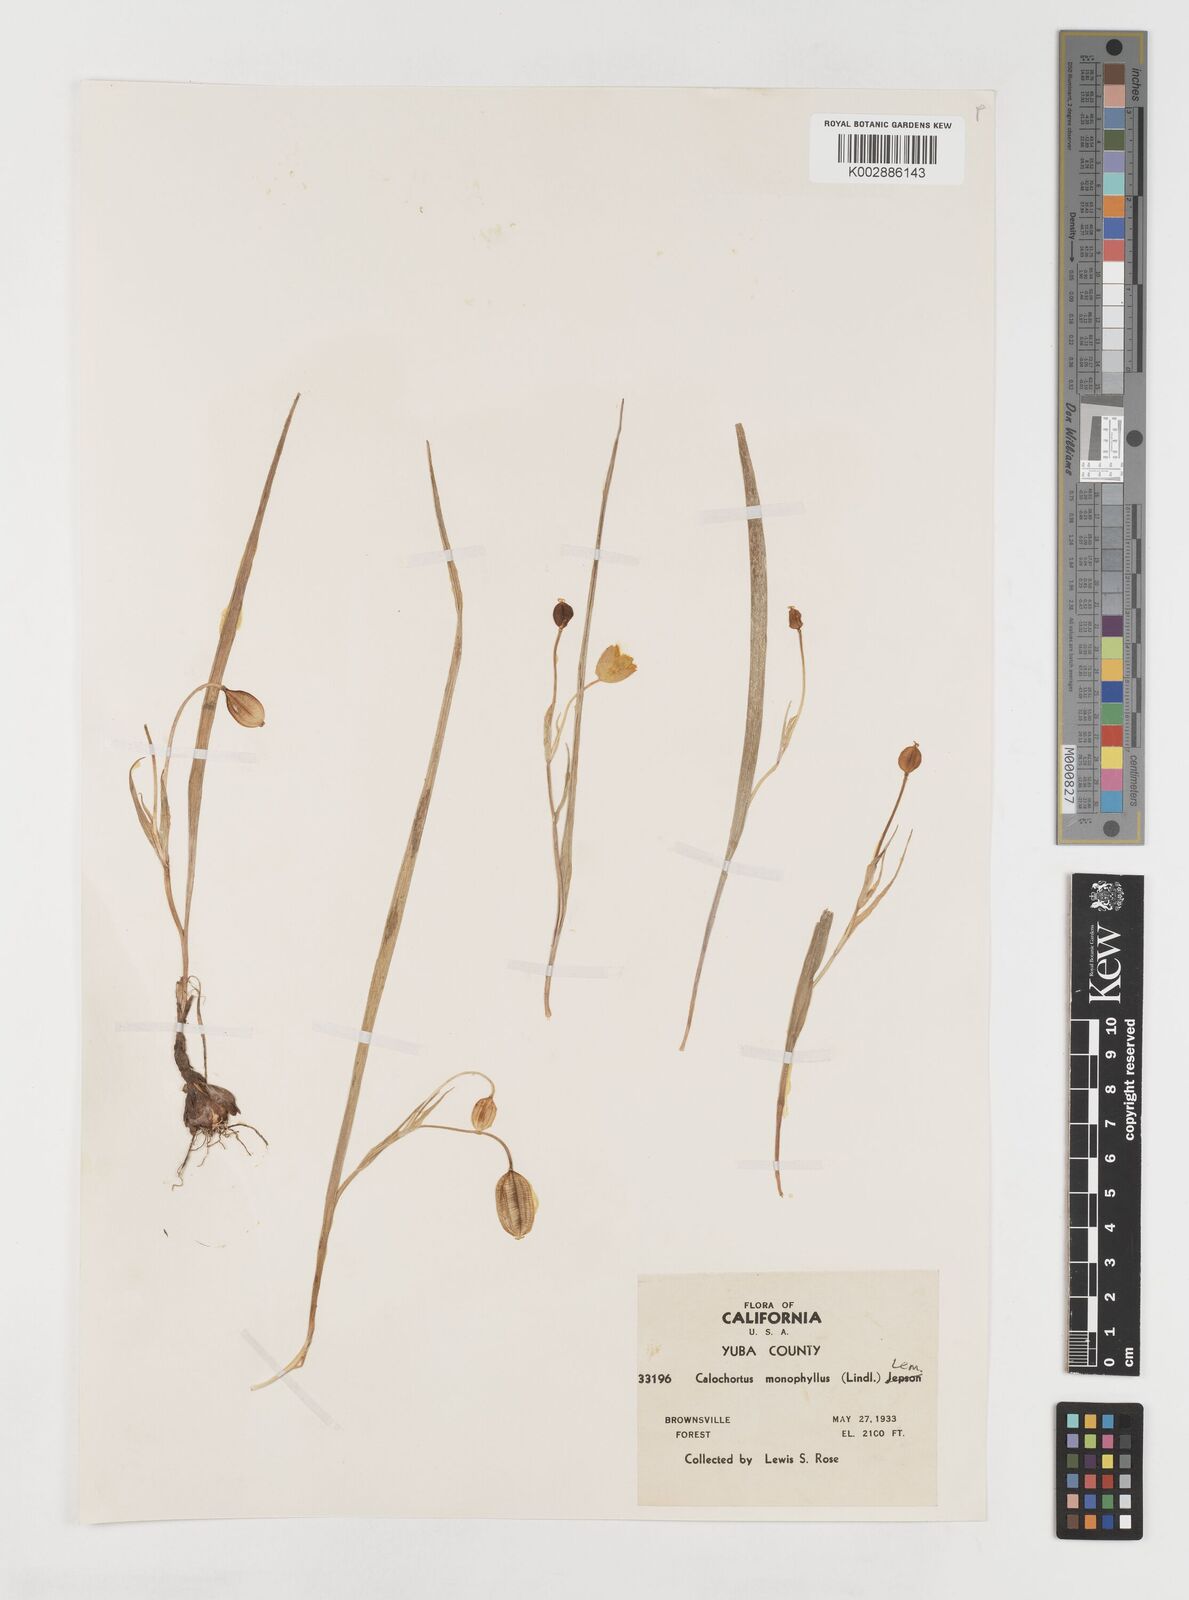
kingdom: Plantae
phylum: Tracheophyta
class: Liliopsida
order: Liliales
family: Liliaceae
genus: Calochortus
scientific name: Calochortus monophyllus
